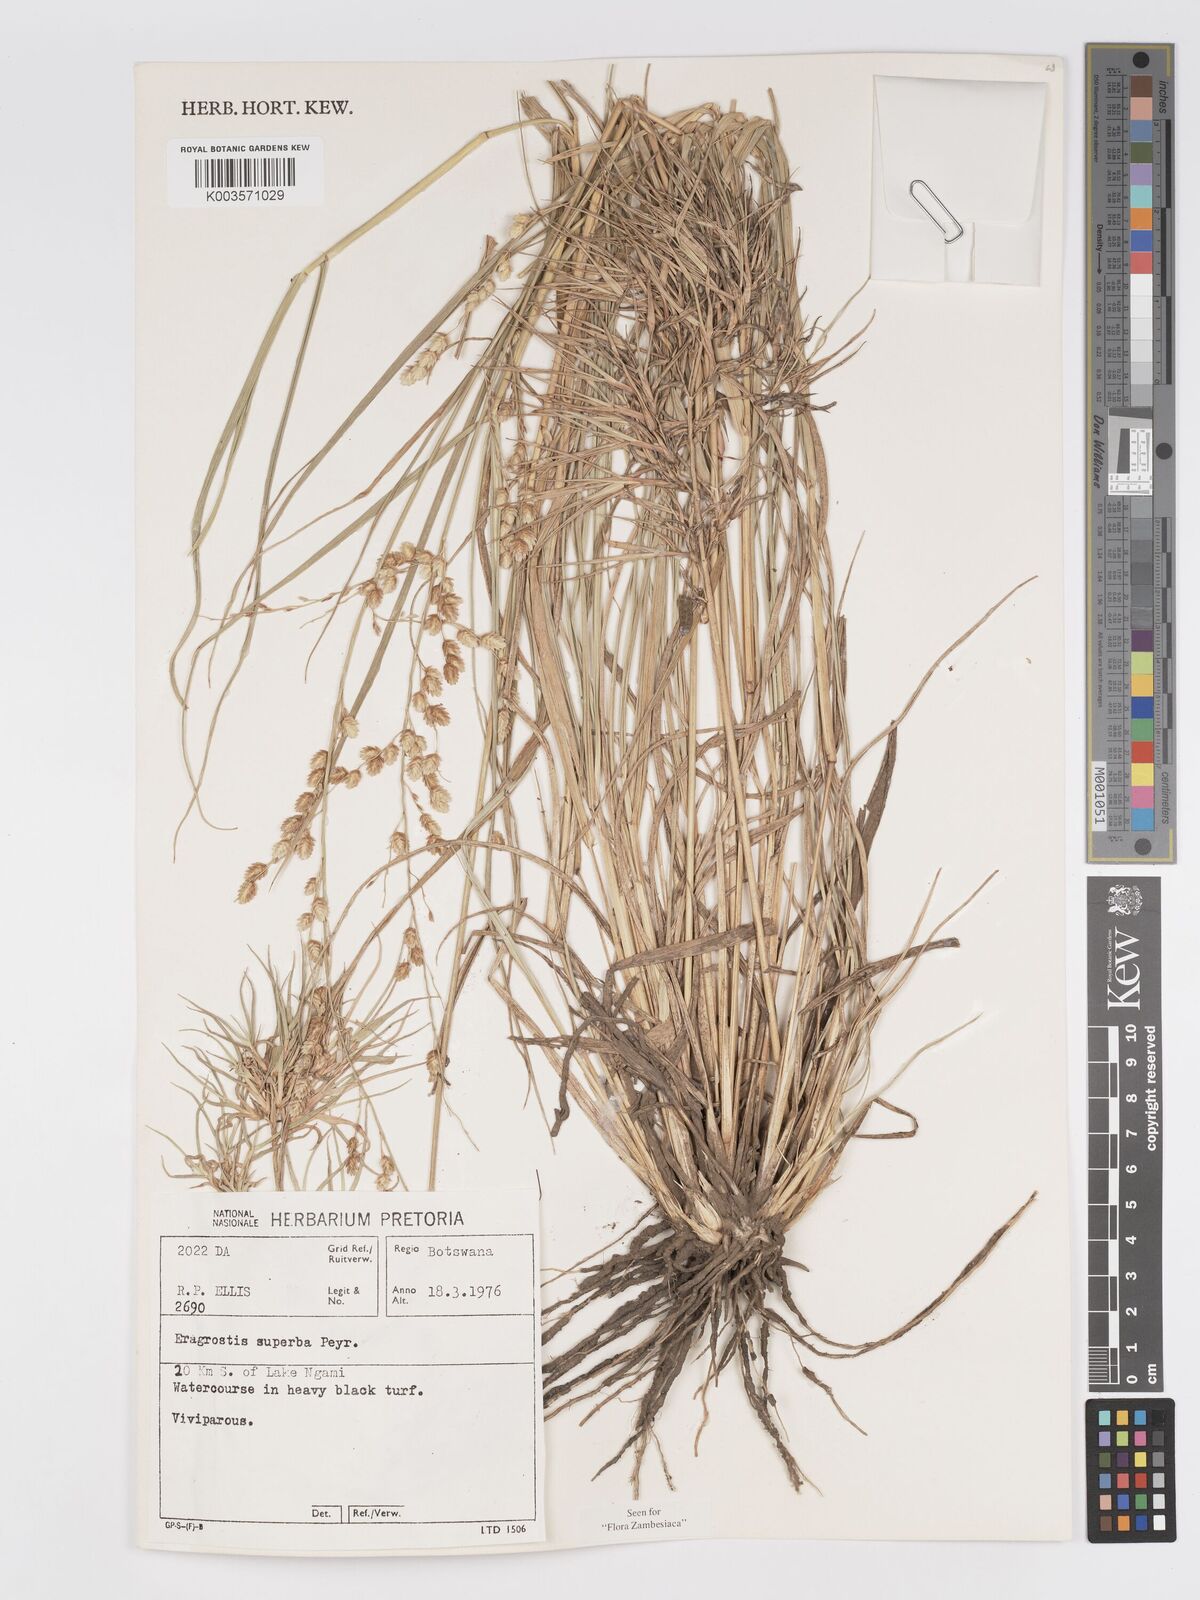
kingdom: Plantae
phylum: Tracheophyta
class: Liliopsida
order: Poales
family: Poaceae
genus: Eragrostis
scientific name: Eragrostis superba
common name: Wilman lovegrass
